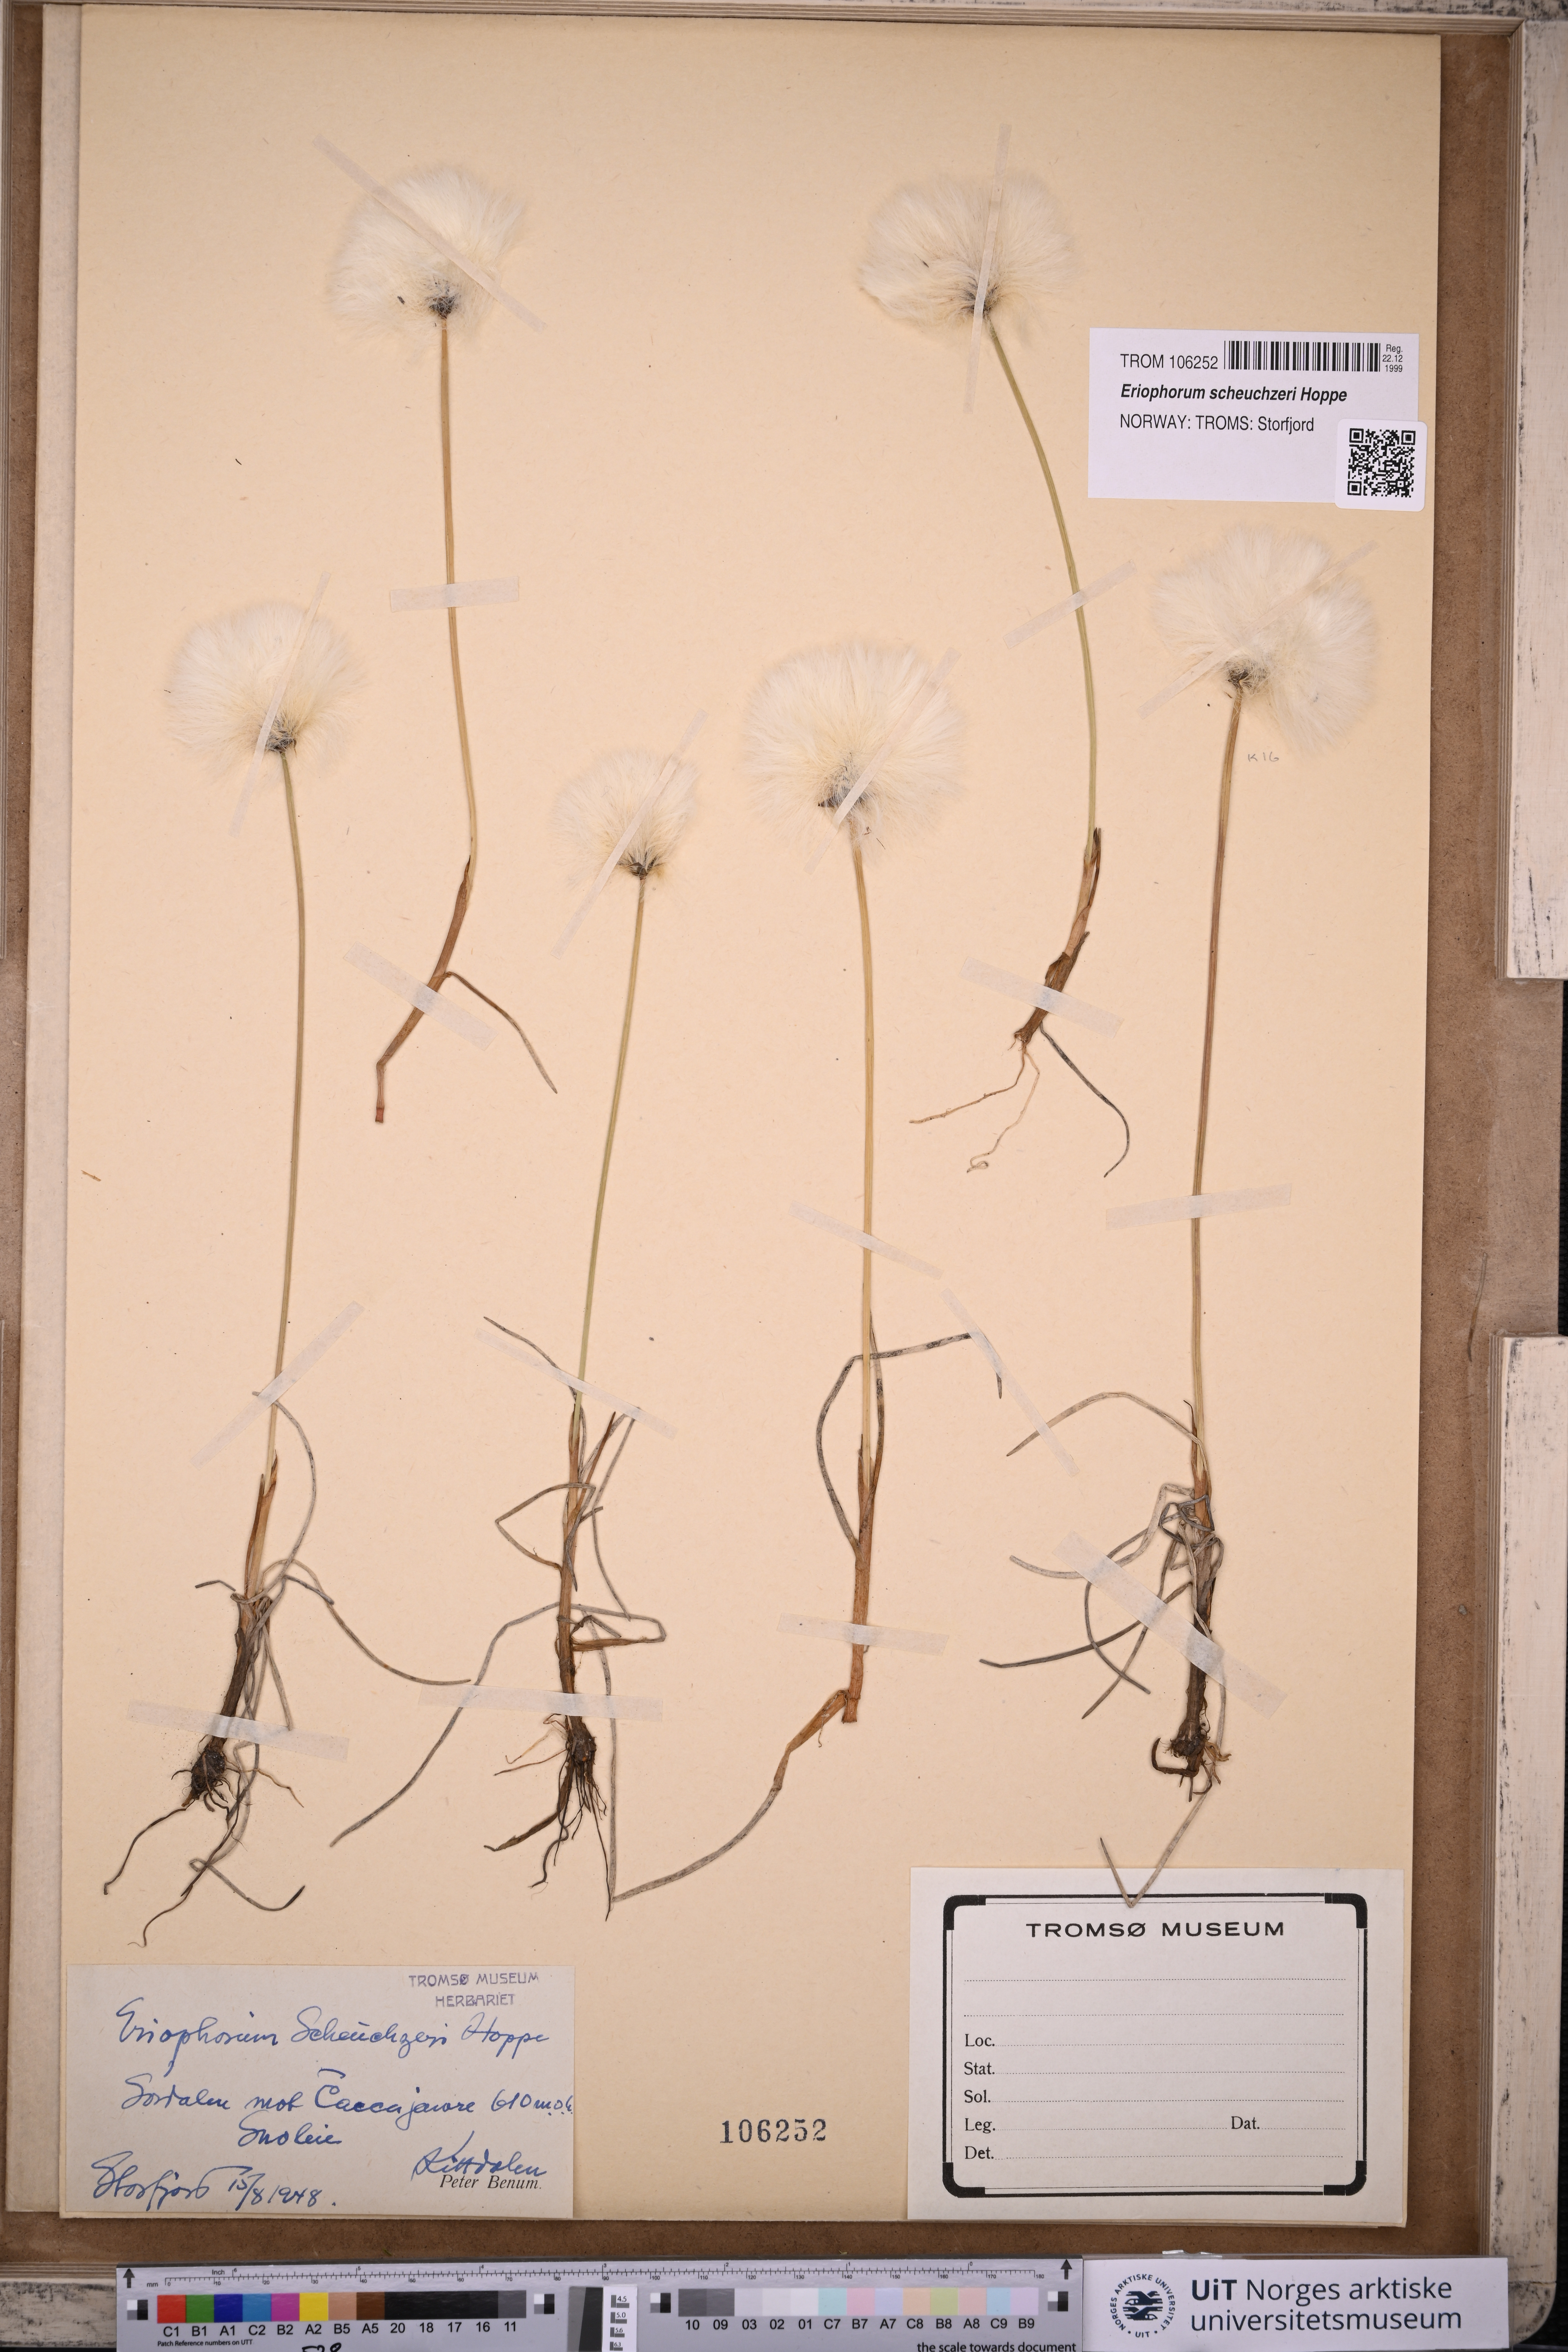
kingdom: Plantae
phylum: Tracheophyta
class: Liliopsida
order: Poales
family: Cyperaceae
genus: Eriophorum
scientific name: Eriophorum scheuchzeri
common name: Scheuchzer's cottongrass
